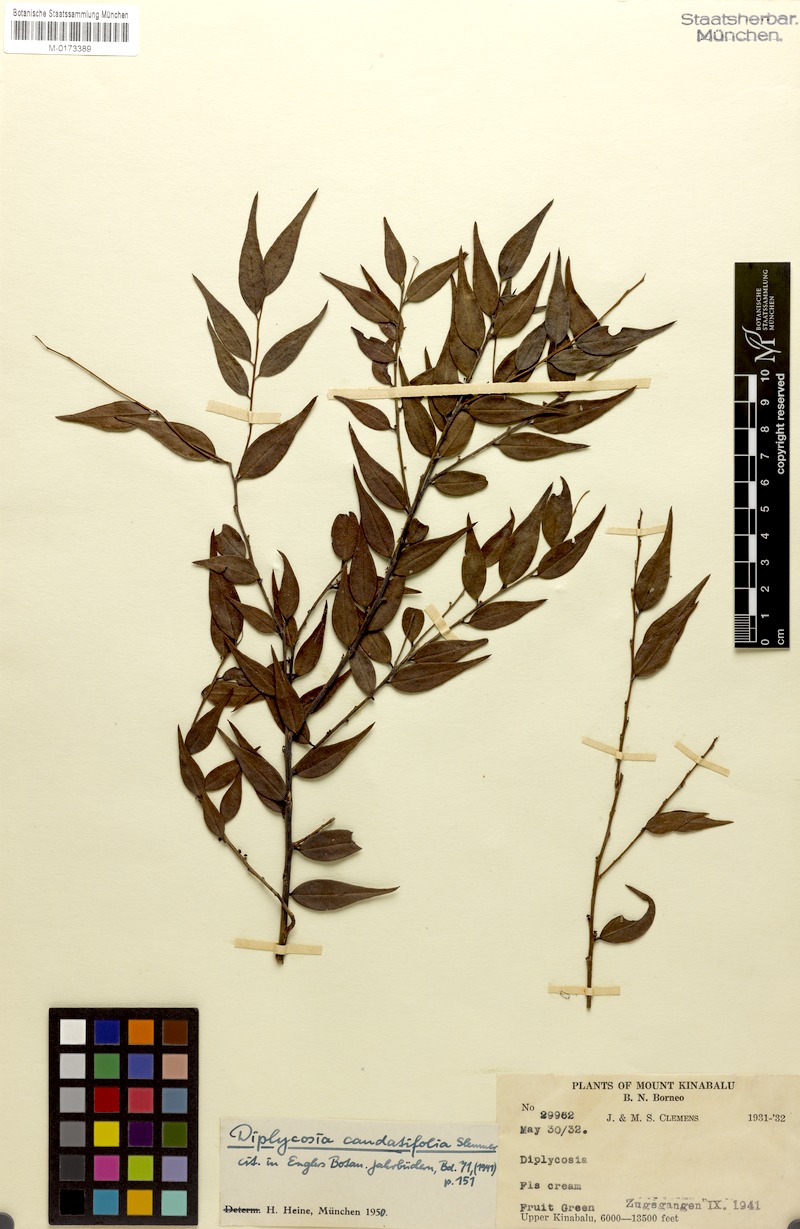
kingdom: Plantae
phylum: Tracheophyta
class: Magnoliopsida
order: Ericales
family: Ericaceae
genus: Gaultheria
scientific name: Gaultheria caudatifolia
